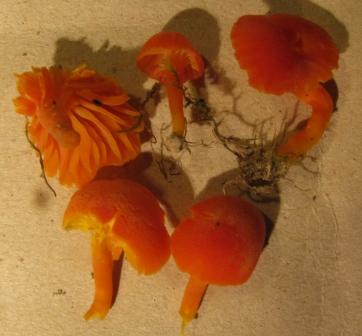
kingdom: Fungi
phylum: Basidiomycota
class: Agaricomycetes
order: Agaricales
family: Hygrophoraceae
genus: Hygrocybe
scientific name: Hygrocybe calciphila
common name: kalk-vokshat
